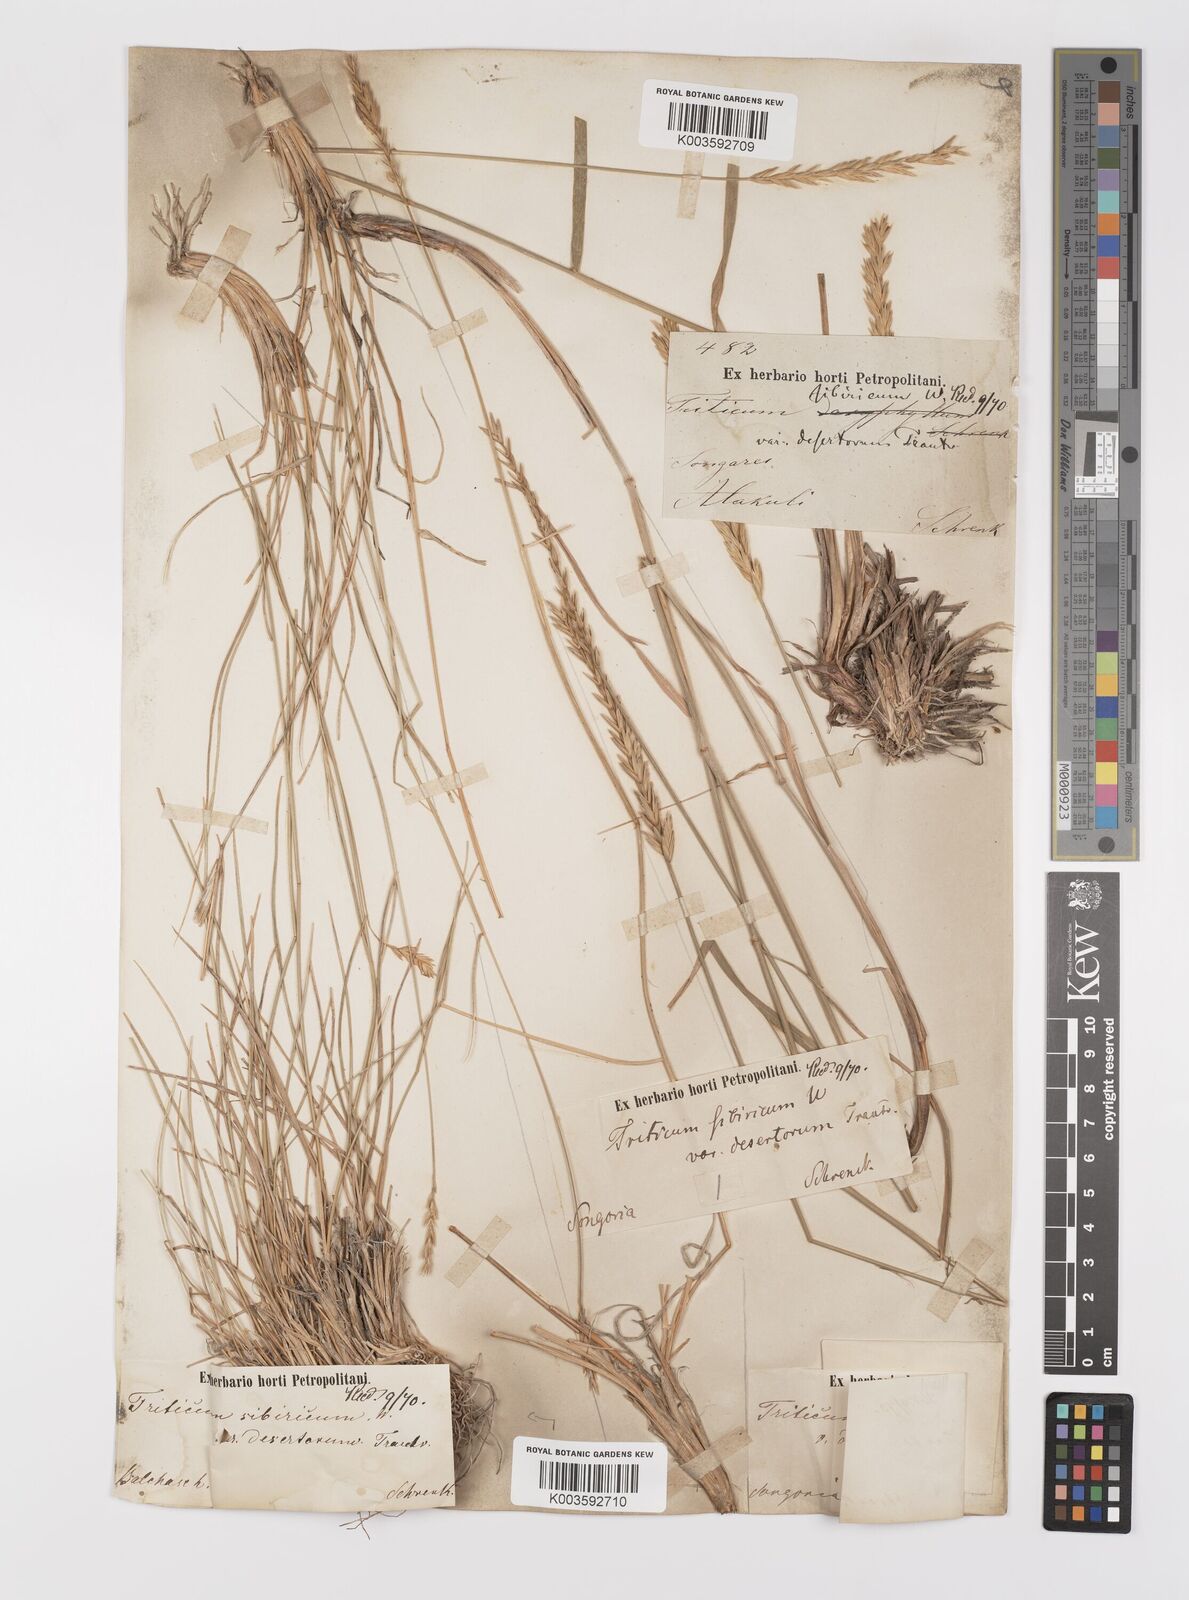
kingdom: Plantae
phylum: Tracheophyta
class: Liliopsida
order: Poales
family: Poaceae
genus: Agropyron
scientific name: Agropyron fragile
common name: Siberian wheatgrass
